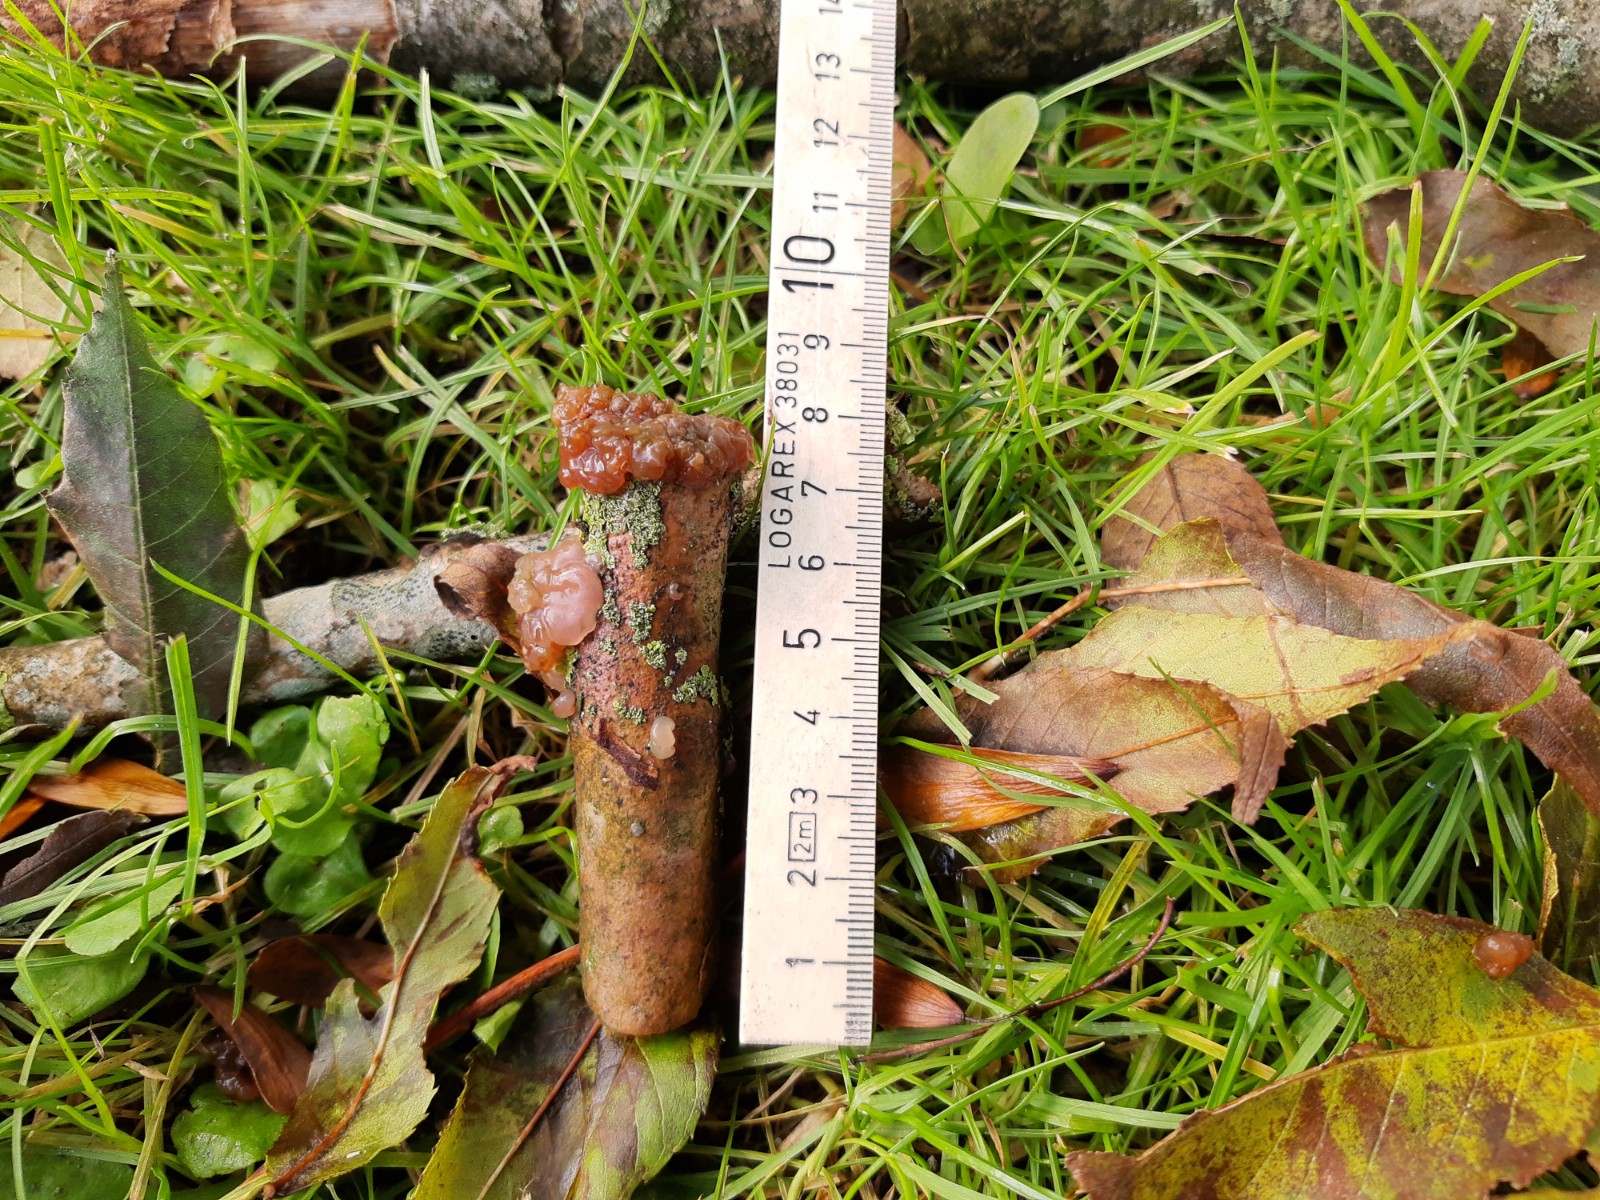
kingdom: Fungi
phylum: Basidiomycota
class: Agaricomycetes
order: Auriculariales
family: Hyaloriaceae
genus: Myxarium
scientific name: Myxarium hyalinum
